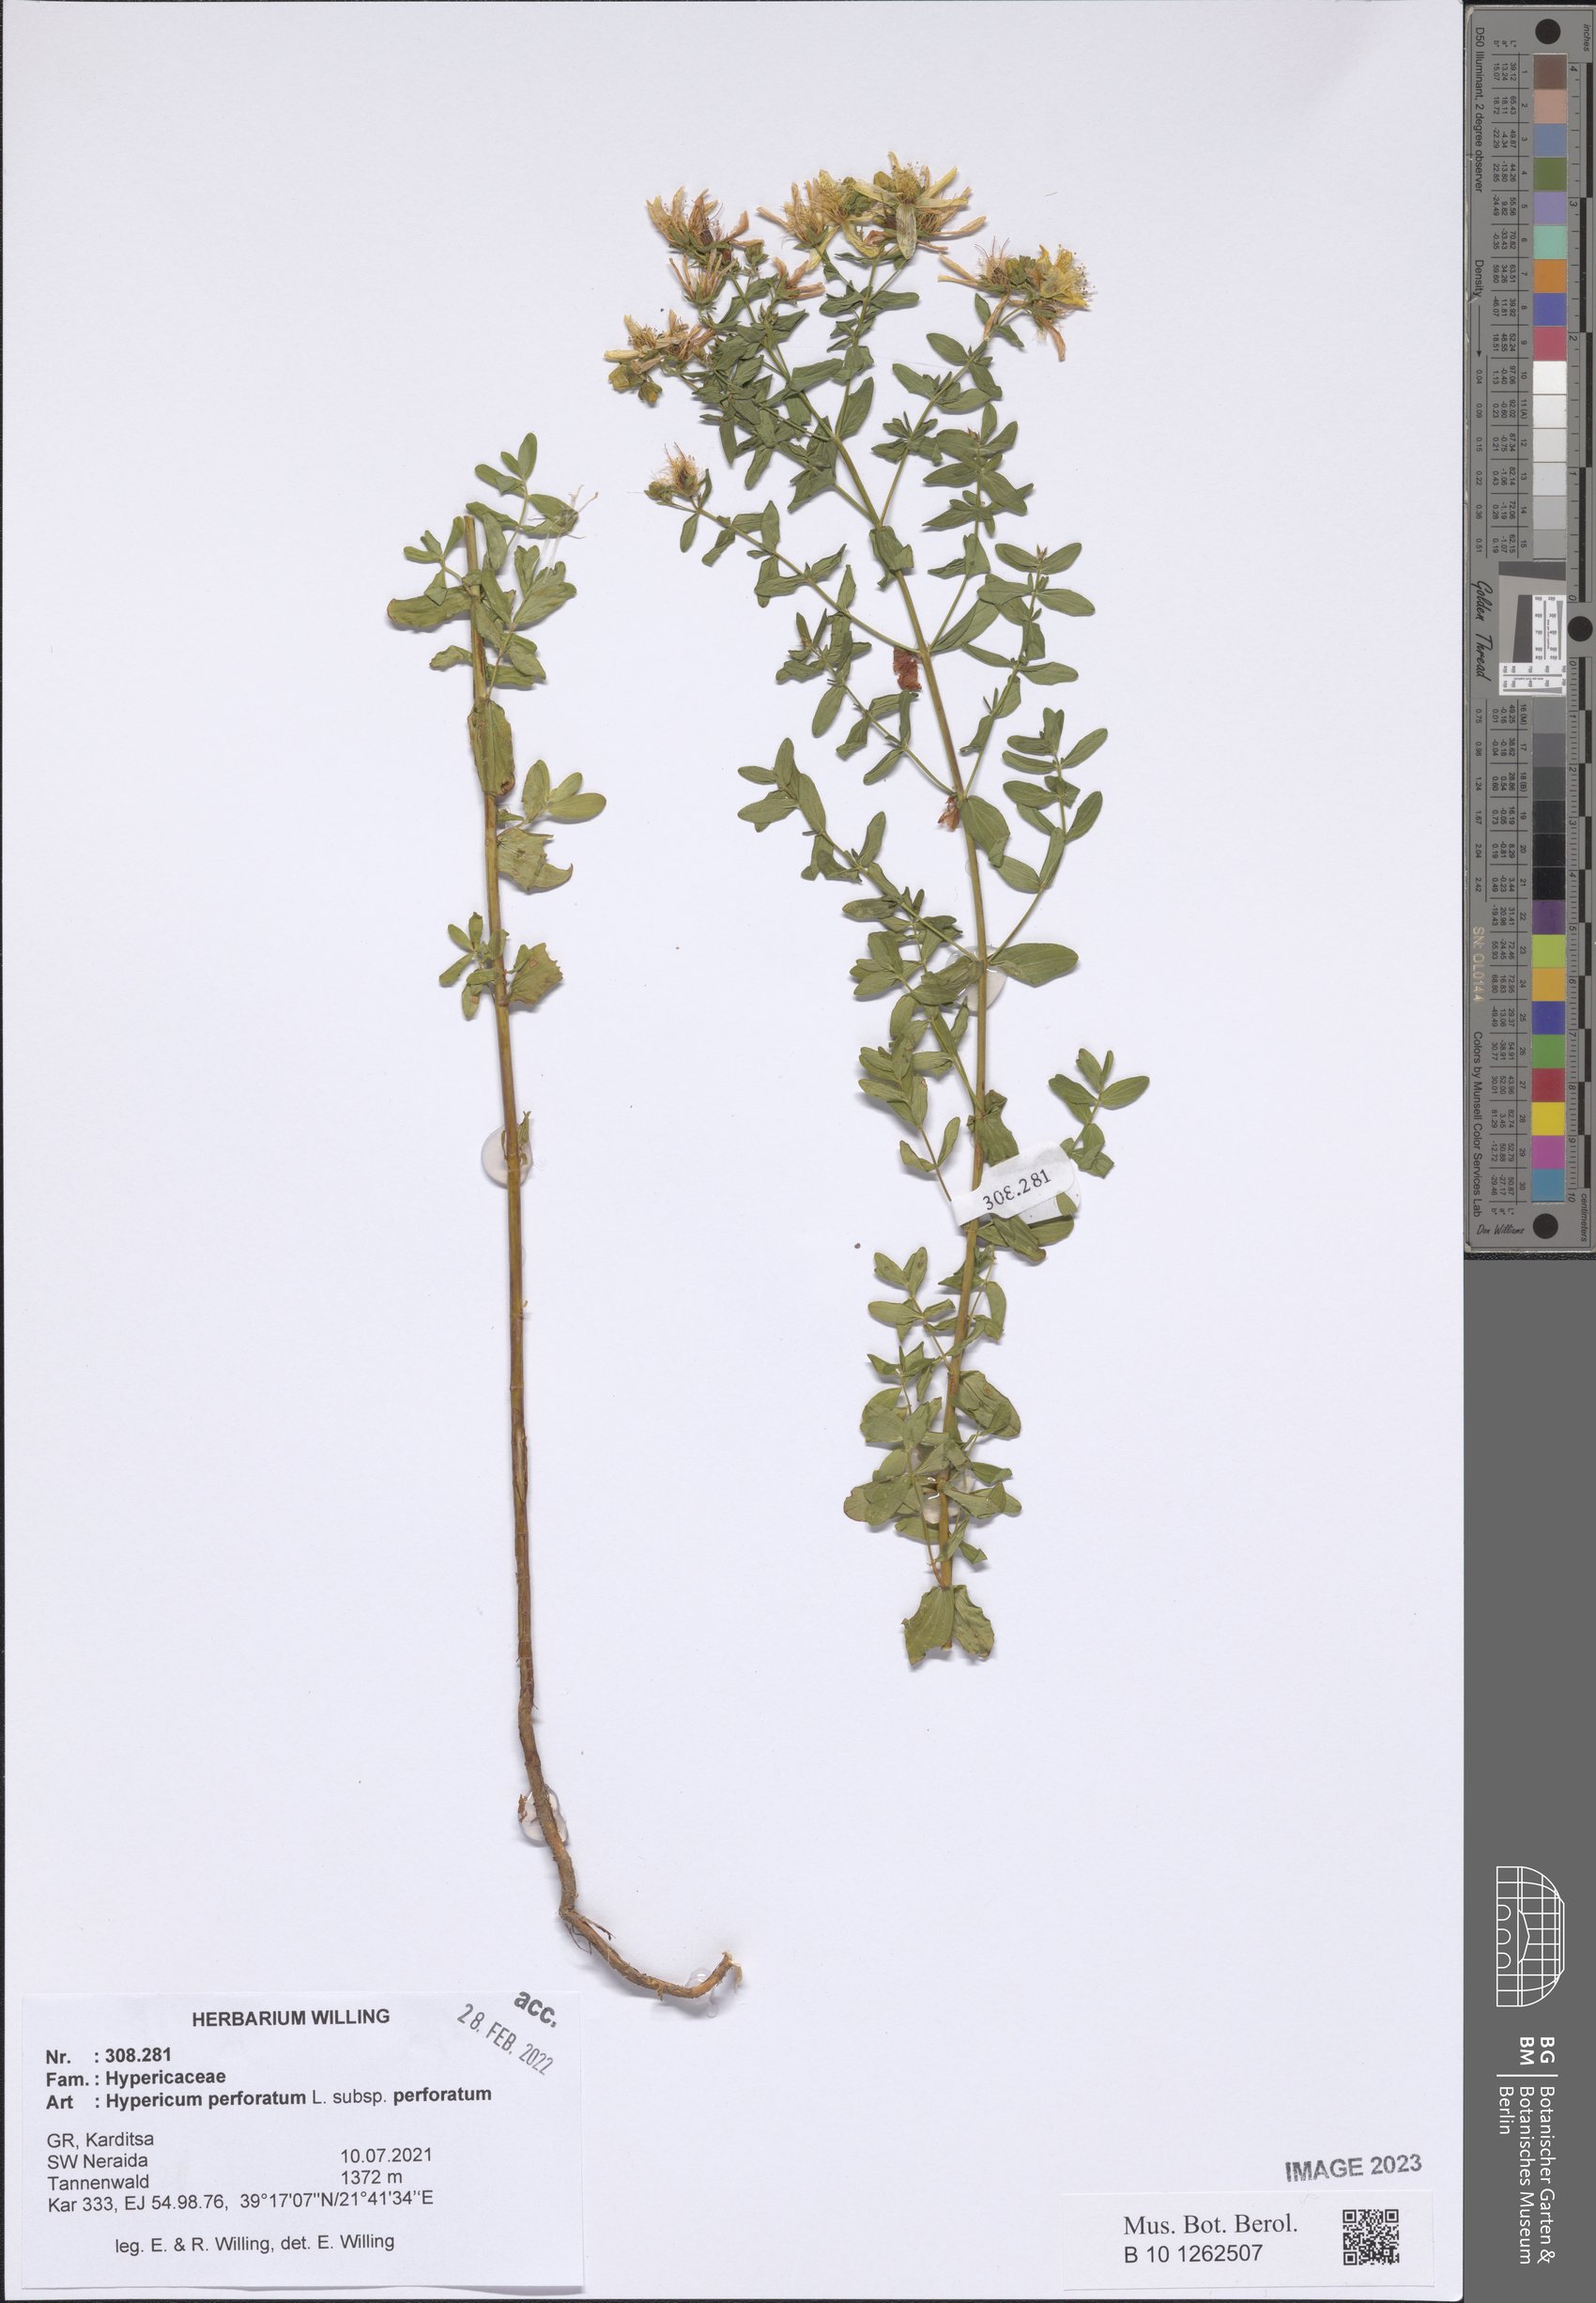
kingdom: Plantae
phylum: Tracheophyta
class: Magnoliopsida
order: Malpighiales
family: Hypericaceae
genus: Hypericum
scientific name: Hypericum perforatum
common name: Common st. johnswort
